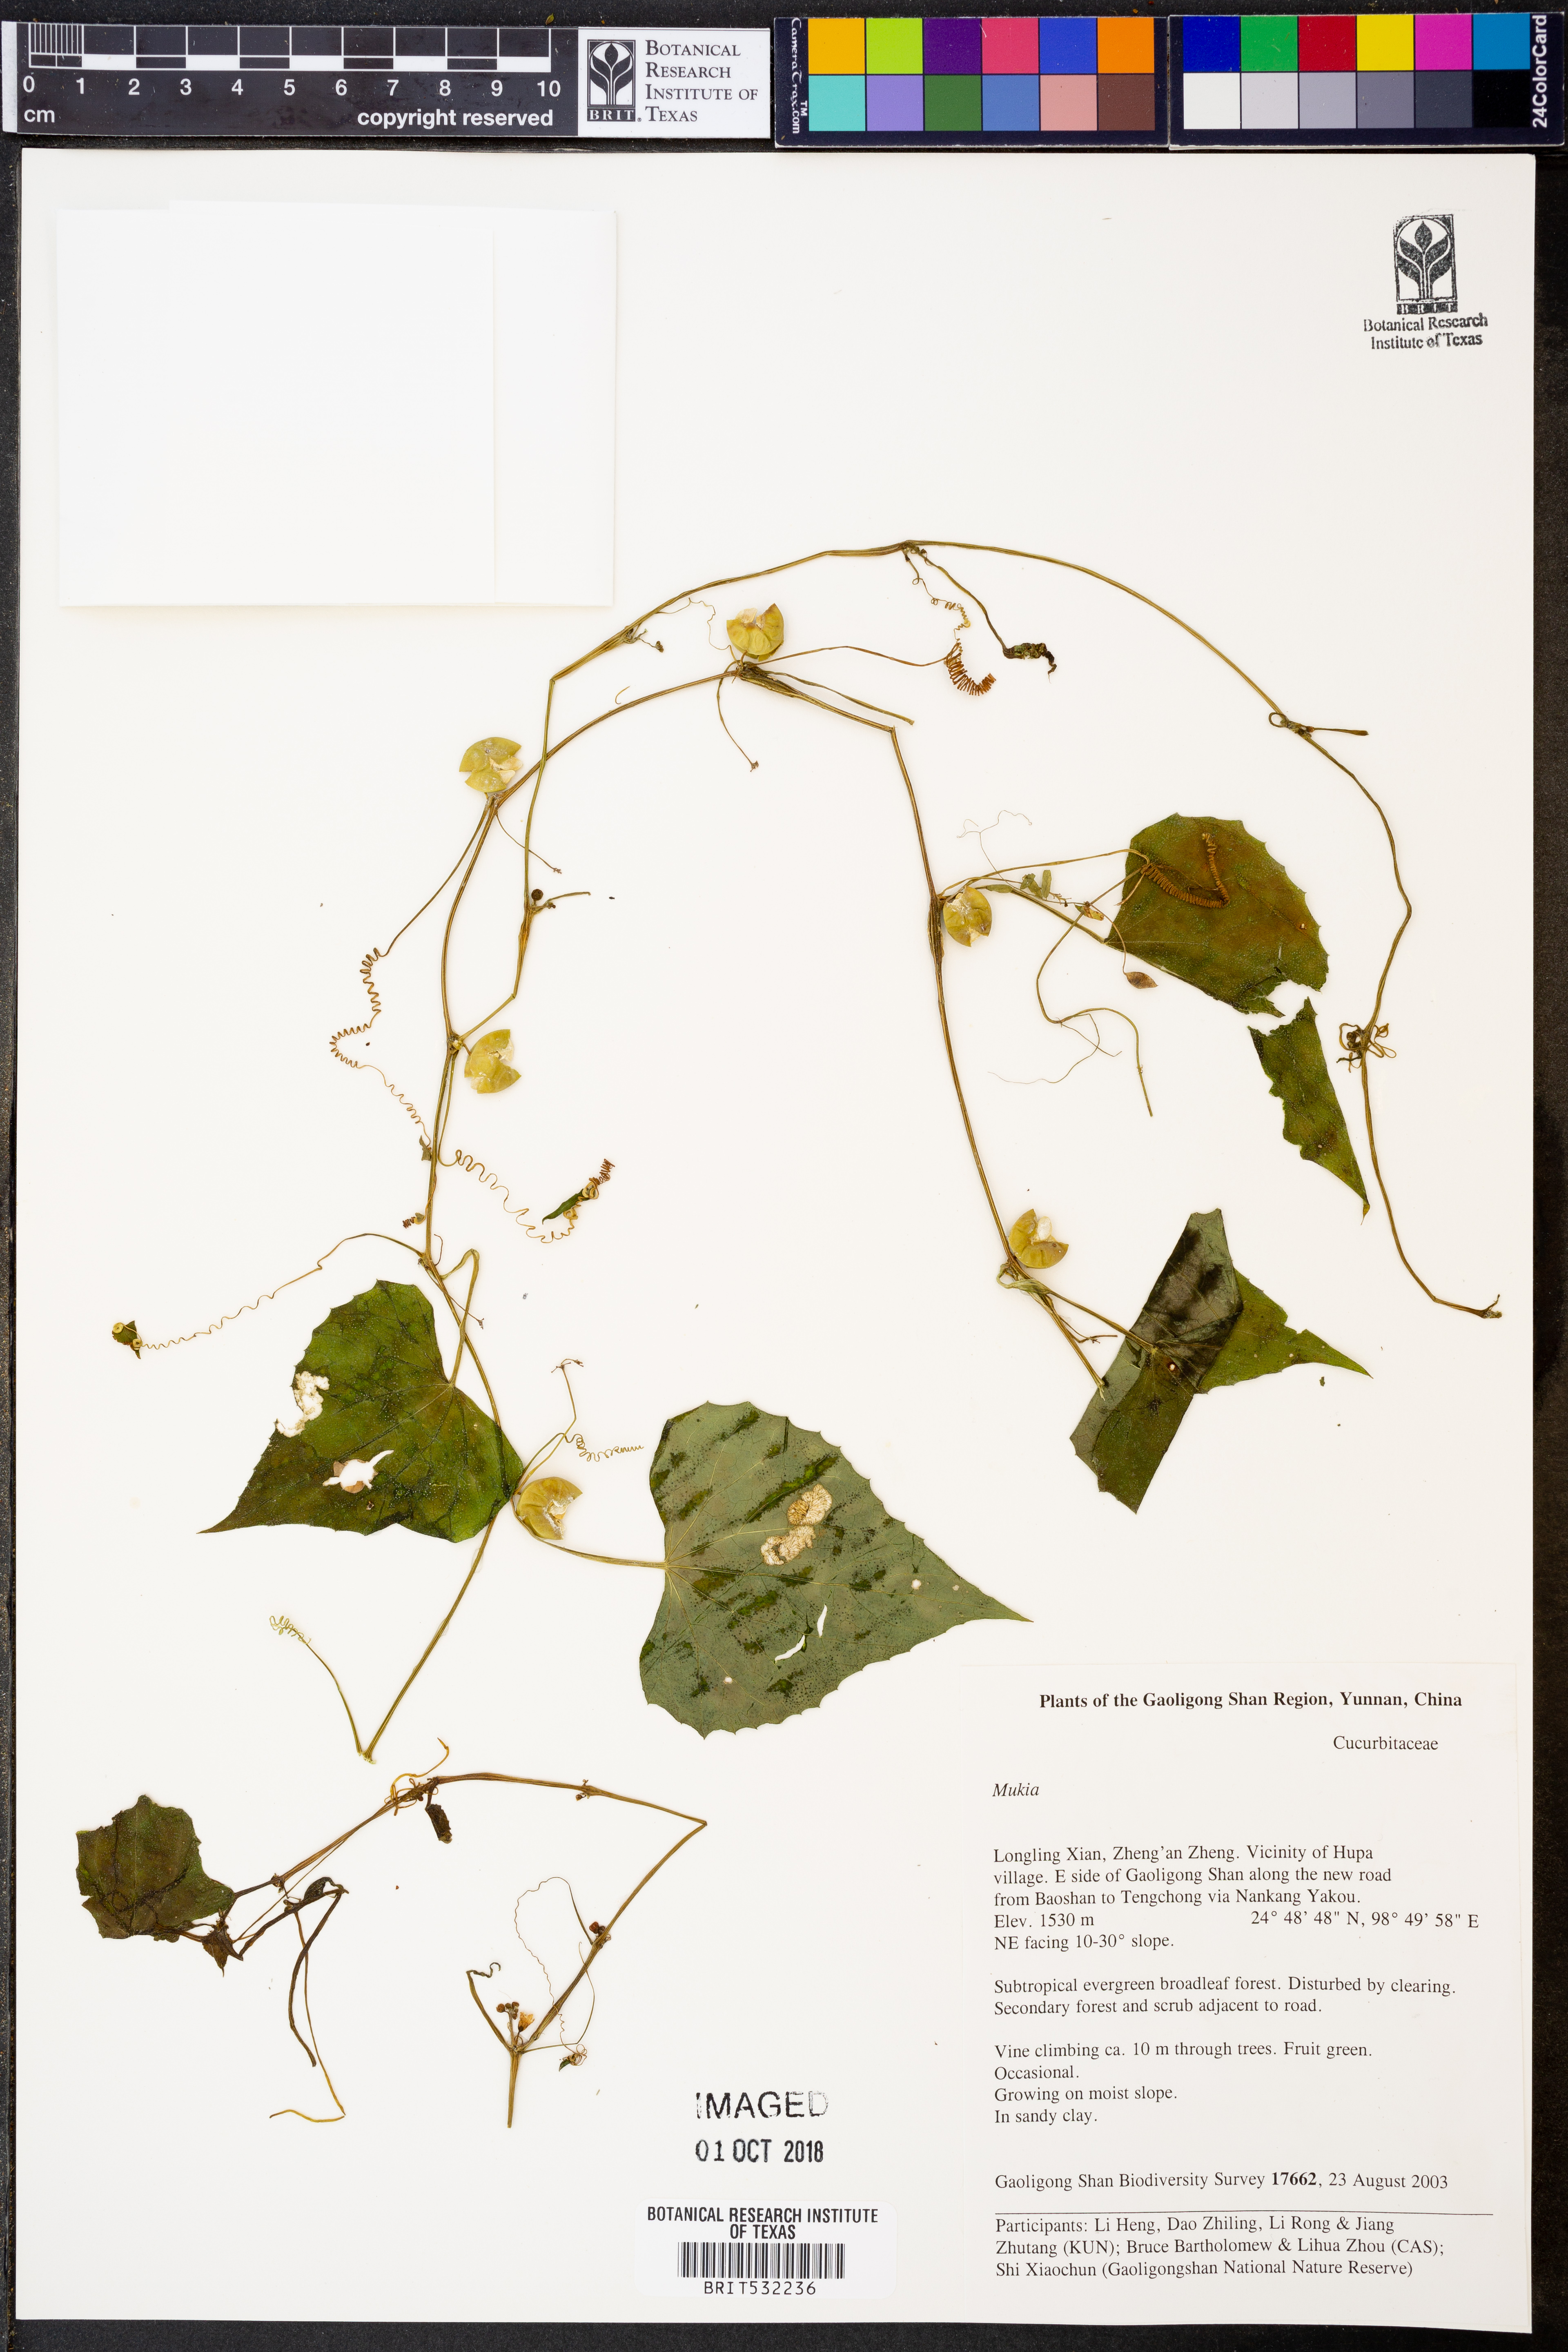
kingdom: Animalia
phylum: Arthropoda
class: Insecta
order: Lepidoptera
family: Crambidae
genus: Mukia
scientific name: Mukia
